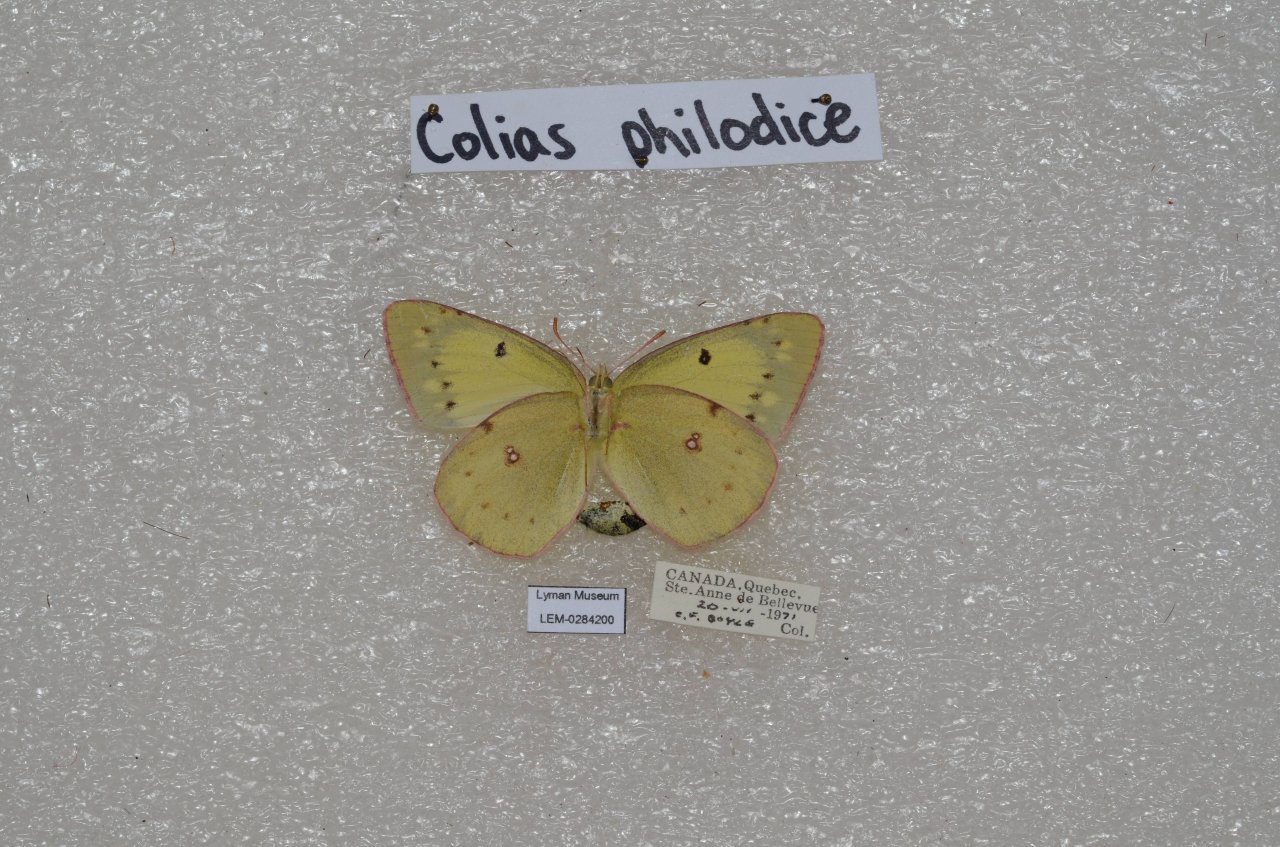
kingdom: Animalia
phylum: Arthropoda
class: Insecta
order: Lepidoptera
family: Pieridae
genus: Colias
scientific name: Colias philodice
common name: Clouded Sulphur
